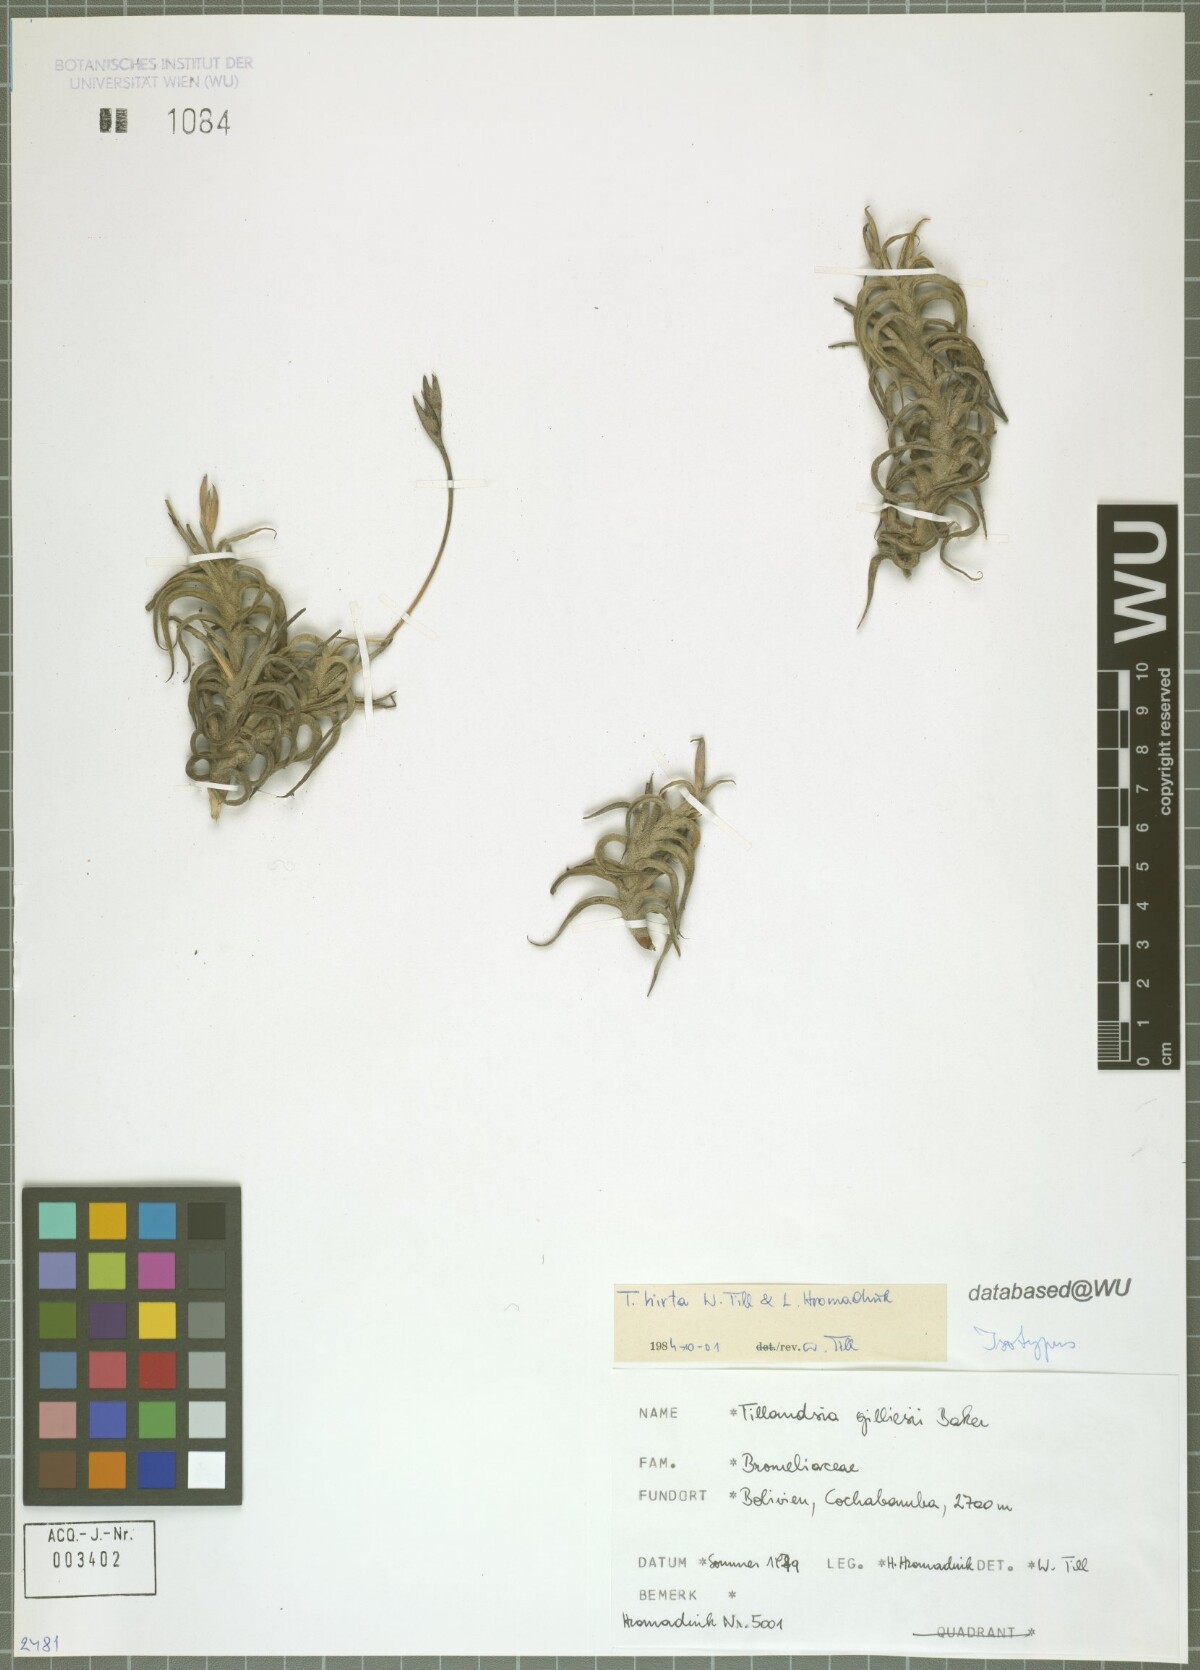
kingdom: Plantae
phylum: Tracheophyta
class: Liliopsida
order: Poales
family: Bromeliaceae
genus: Tillandsia
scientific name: Tillandsia hirta
